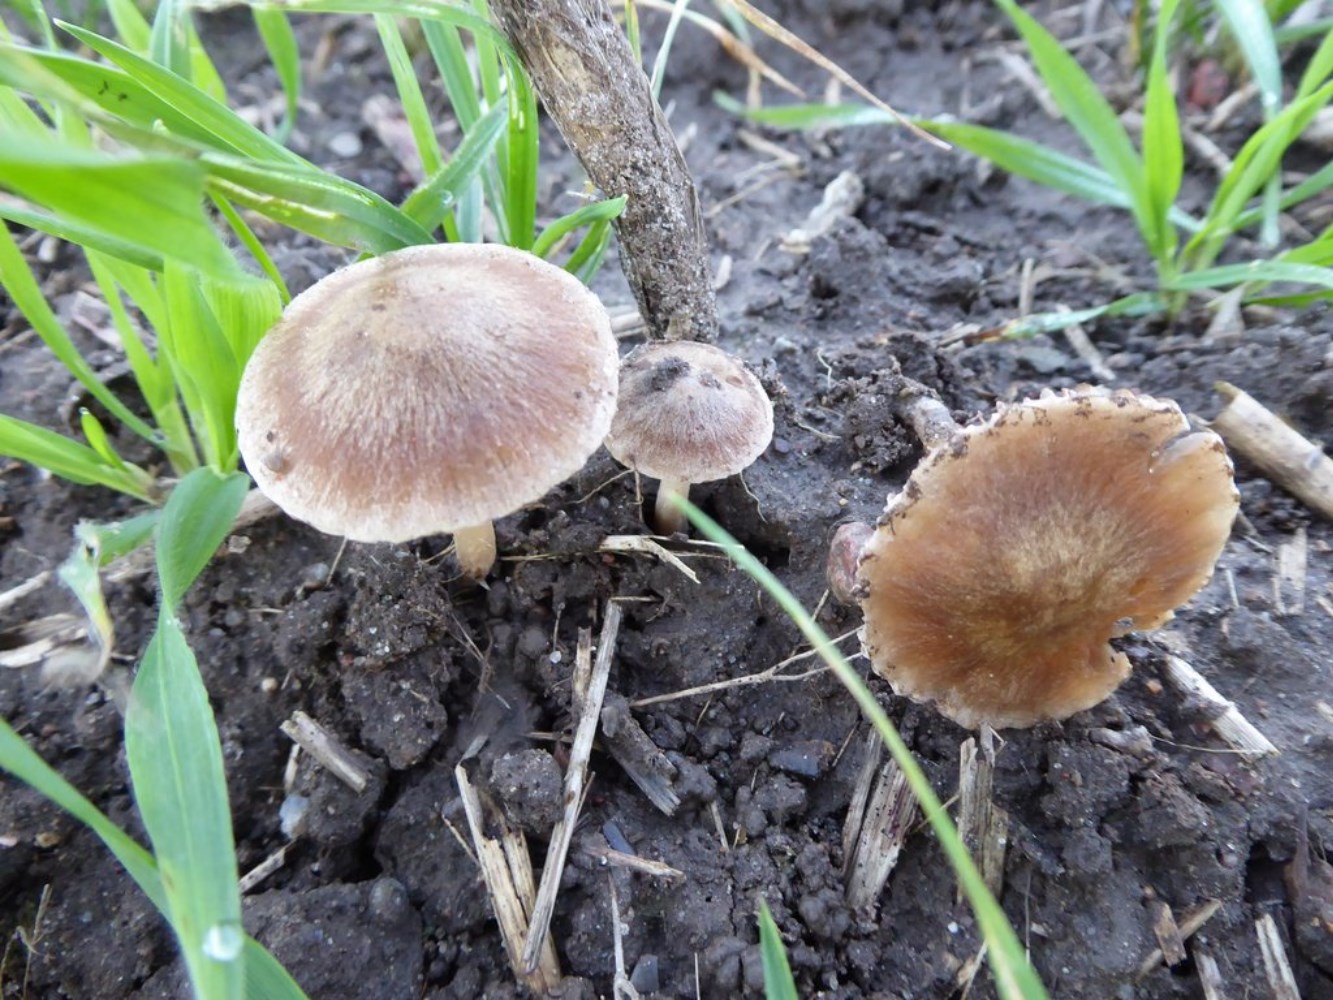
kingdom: Fungi
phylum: Basidiomycota
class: Agaricomycetes
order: Agaricales
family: Psathyrellaceae
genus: Psathyrella
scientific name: Psathyrella
